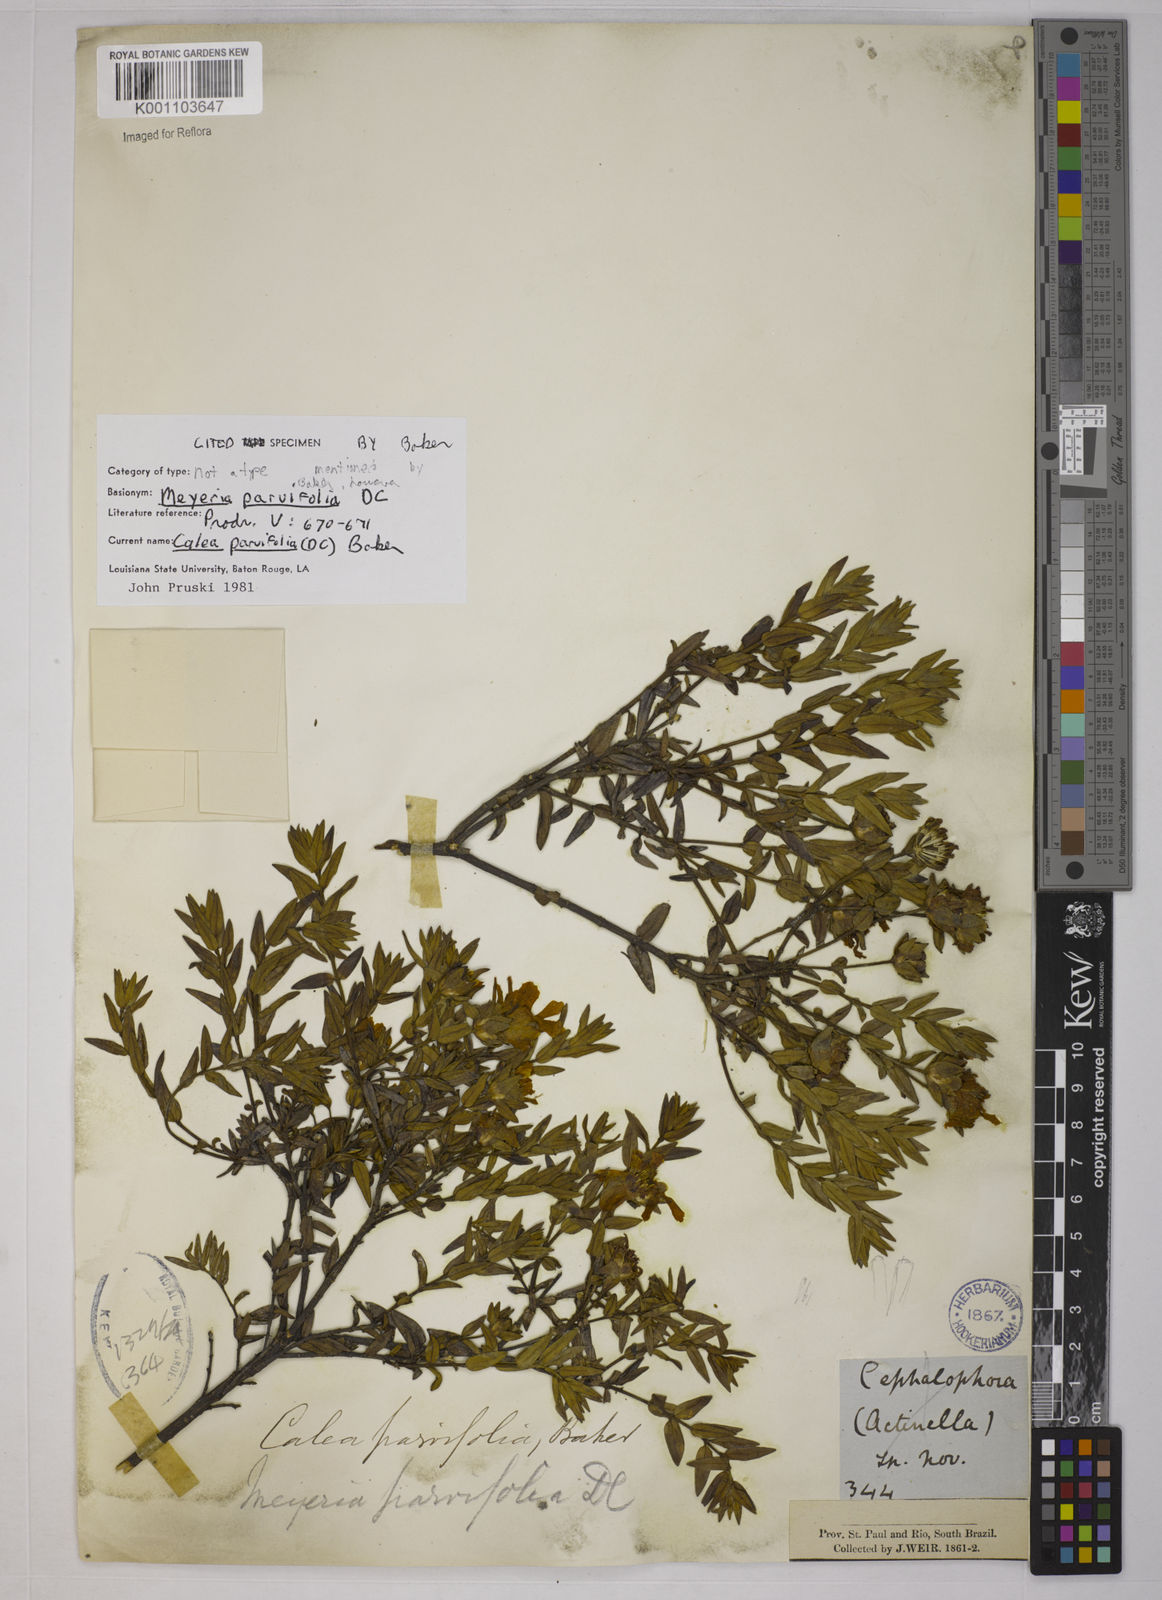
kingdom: Plantae
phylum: Tracheophyta
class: Magnoliopsida
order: Asterales
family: Asteraceae
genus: Calea
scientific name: Calea parvifolia
